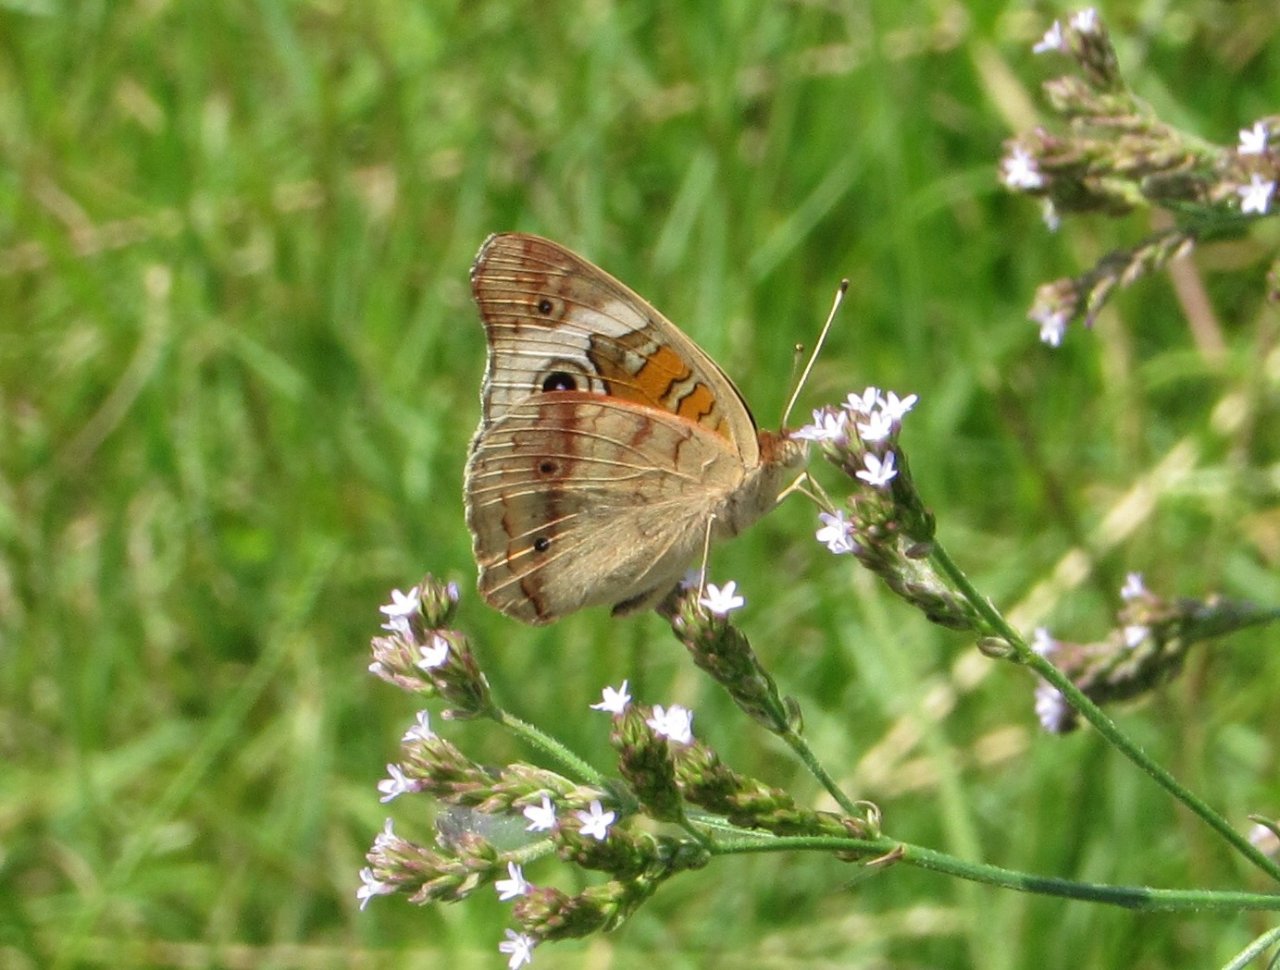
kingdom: Animalia
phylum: Arthropoda
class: Insecta
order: Lepidoptera
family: Nymphalidae
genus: Junonia
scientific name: Junonia coenia
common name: Common Buckeye
